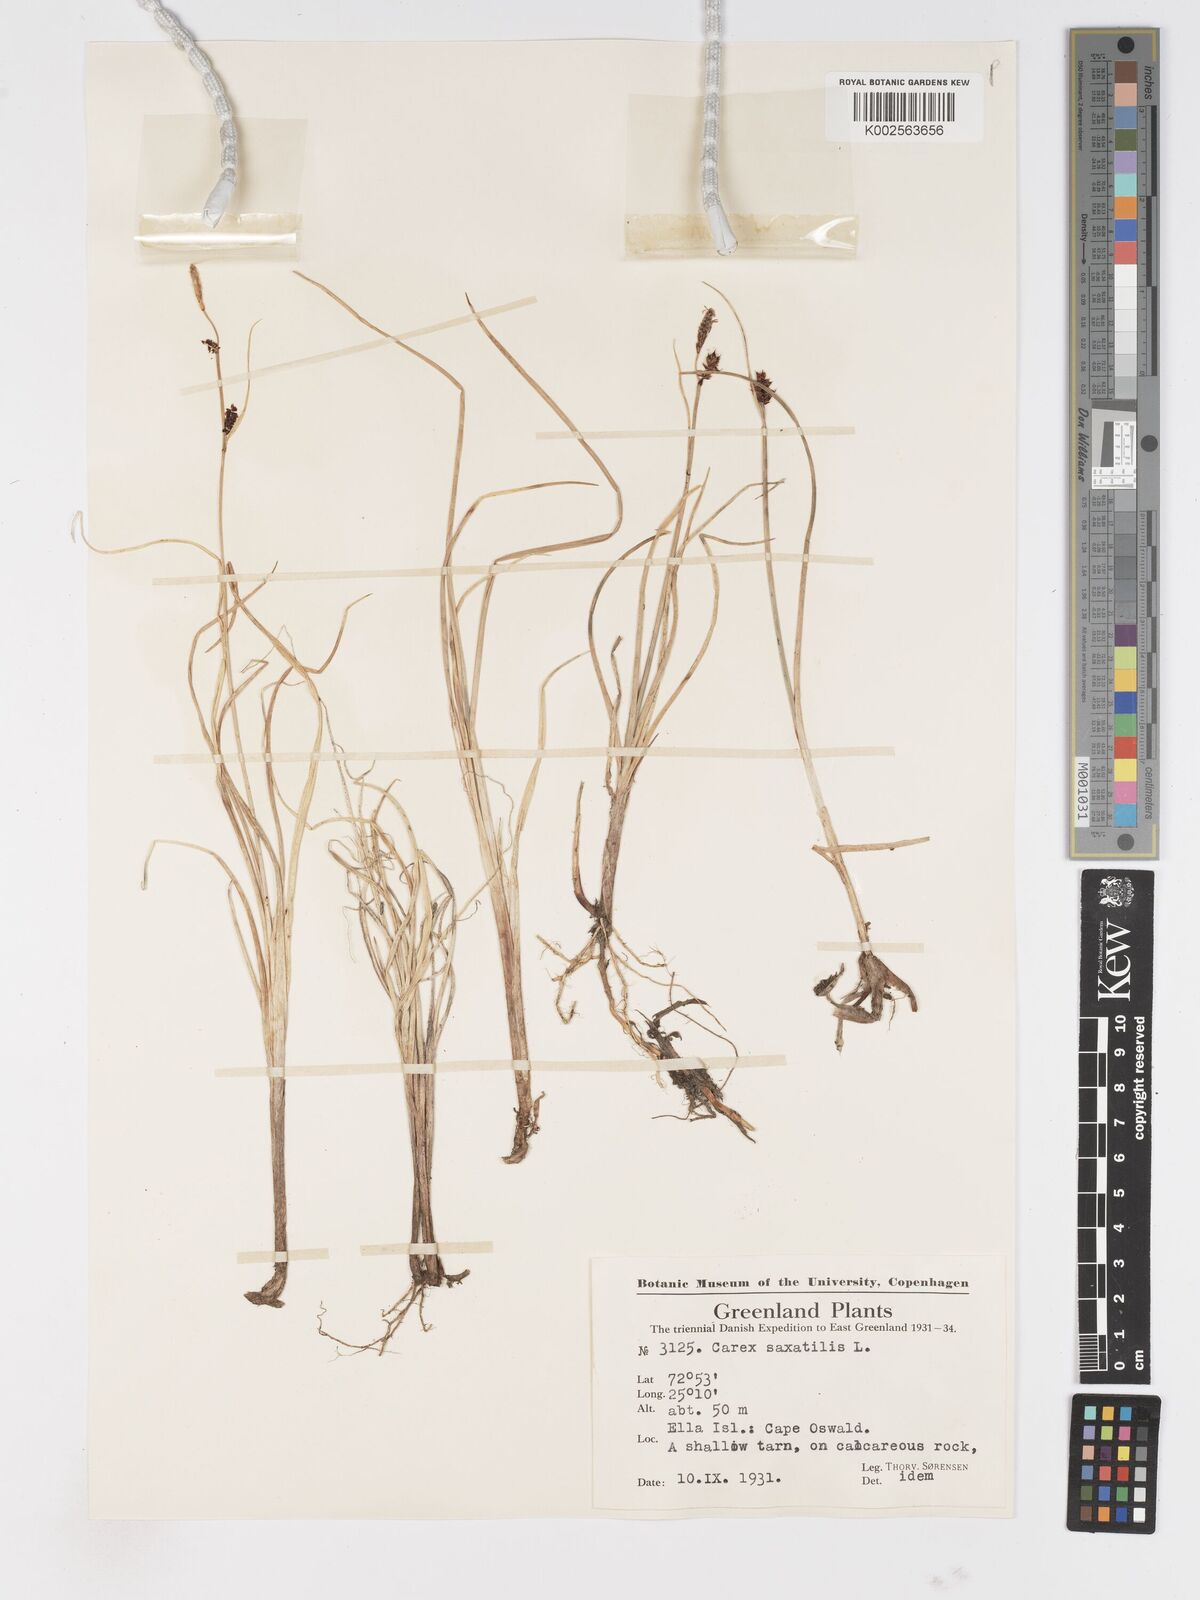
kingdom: Plantae
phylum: Tracheophyta
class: Liliopsida
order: Poales
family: Cyperaceae
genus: Carex
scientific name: Carex saxatilis
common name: Russet sedge
